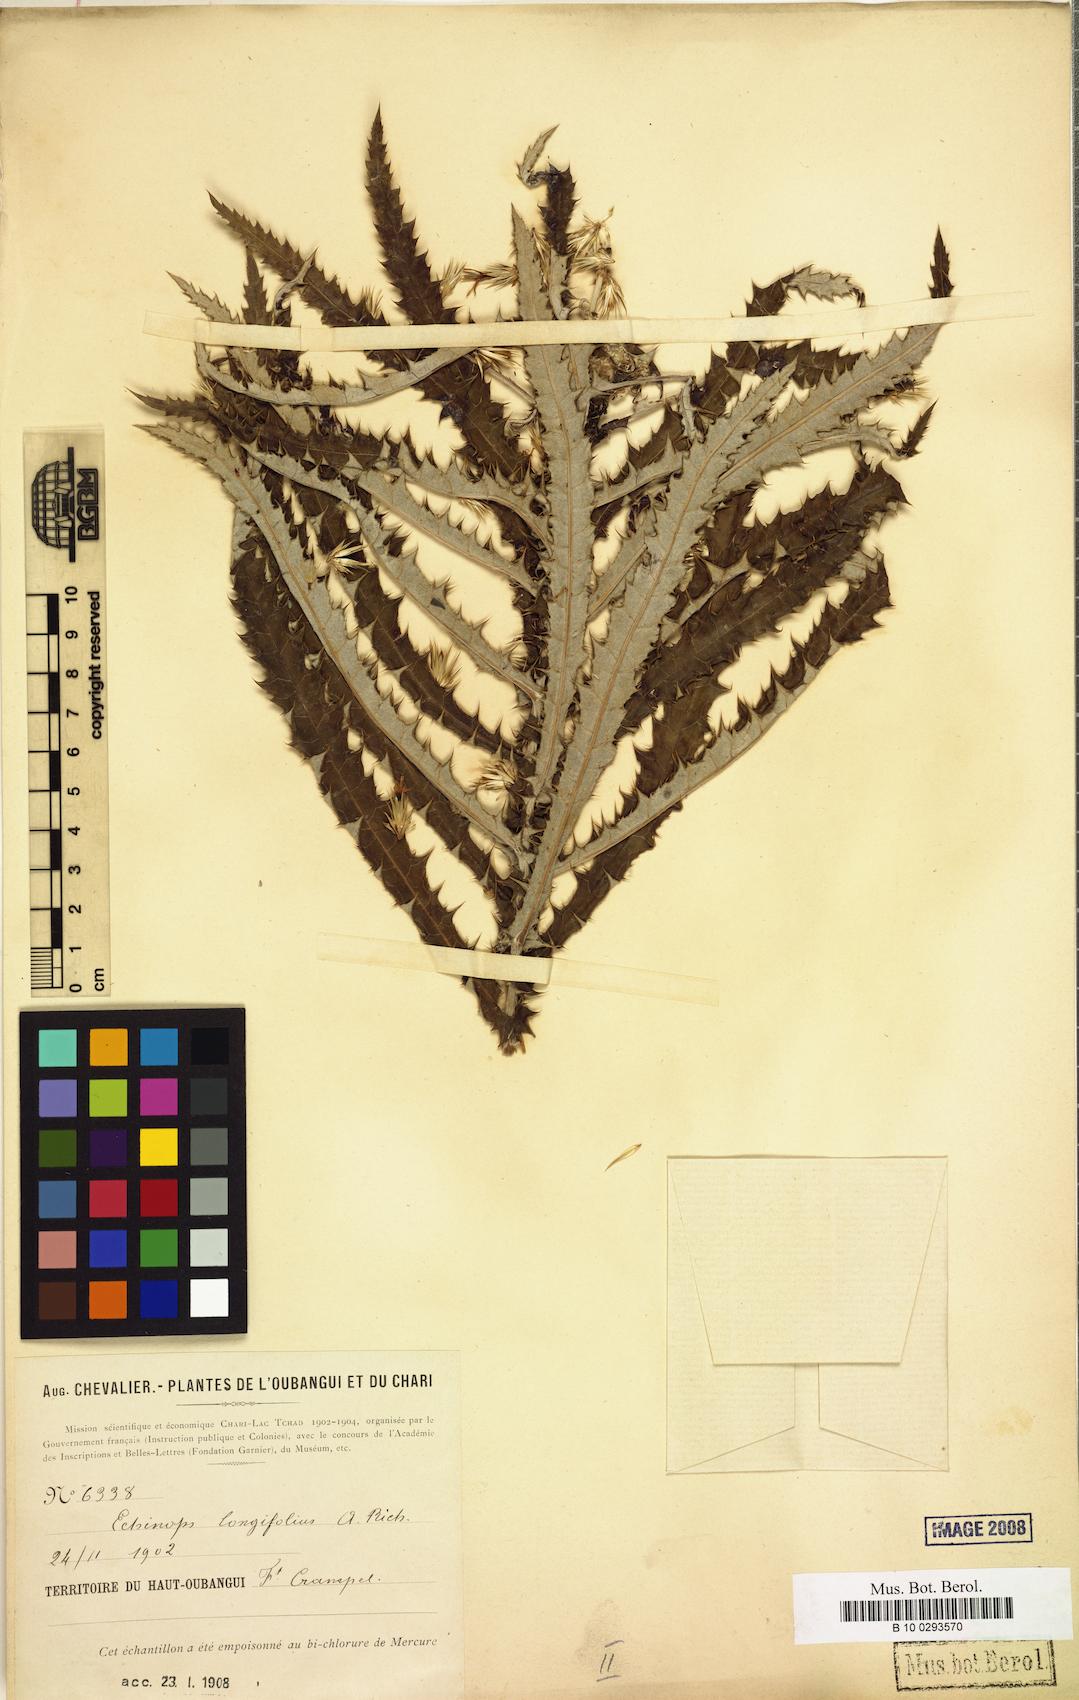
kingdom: Plantae
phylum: Tracheophyta
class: Magnoliopsida
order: Asterales
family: Asteraceae
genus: Echinops
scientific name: Echinops longifolius
